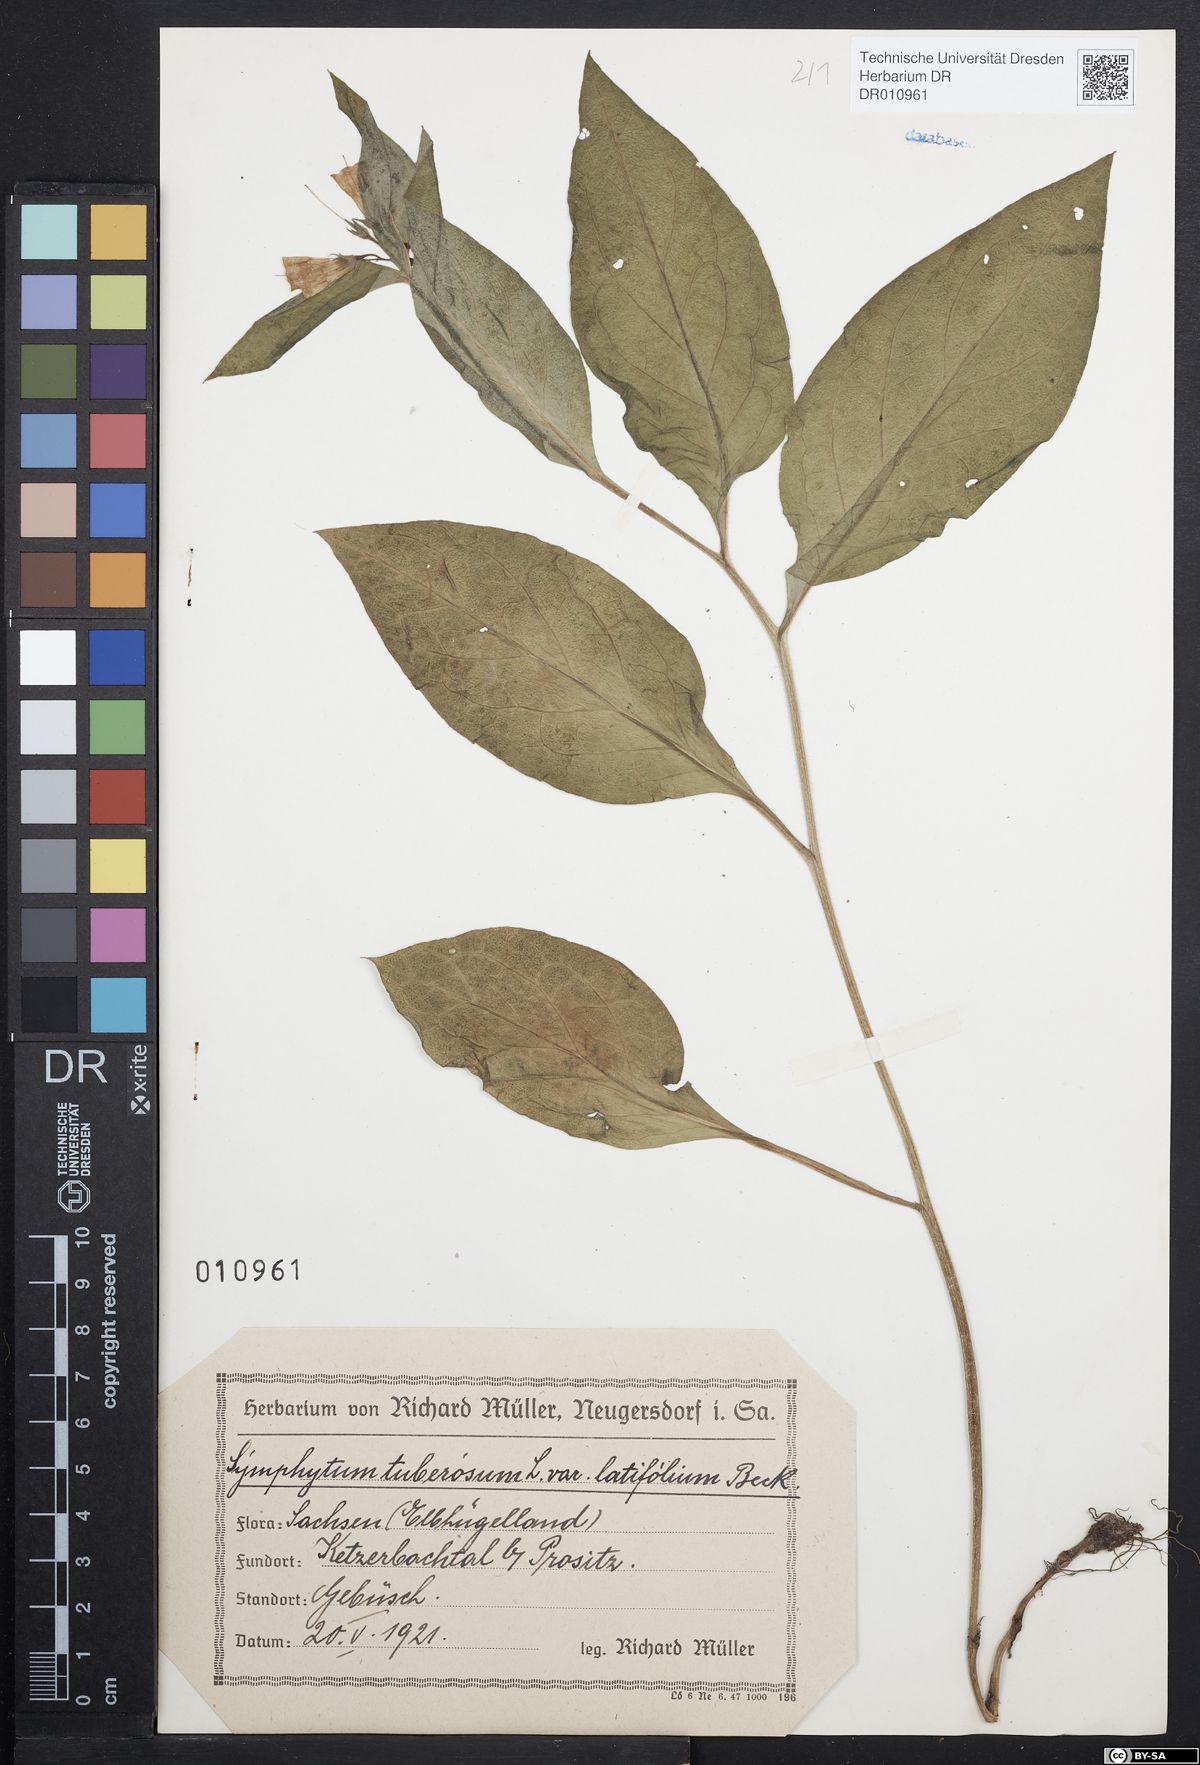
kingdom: Plantae
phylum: Tracheophyta
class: Magnoliopsida
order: Boraginales
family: Boraginaceae
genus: Symphytum
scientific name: Symphytum tuberosum
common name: Tuberous comfrey
